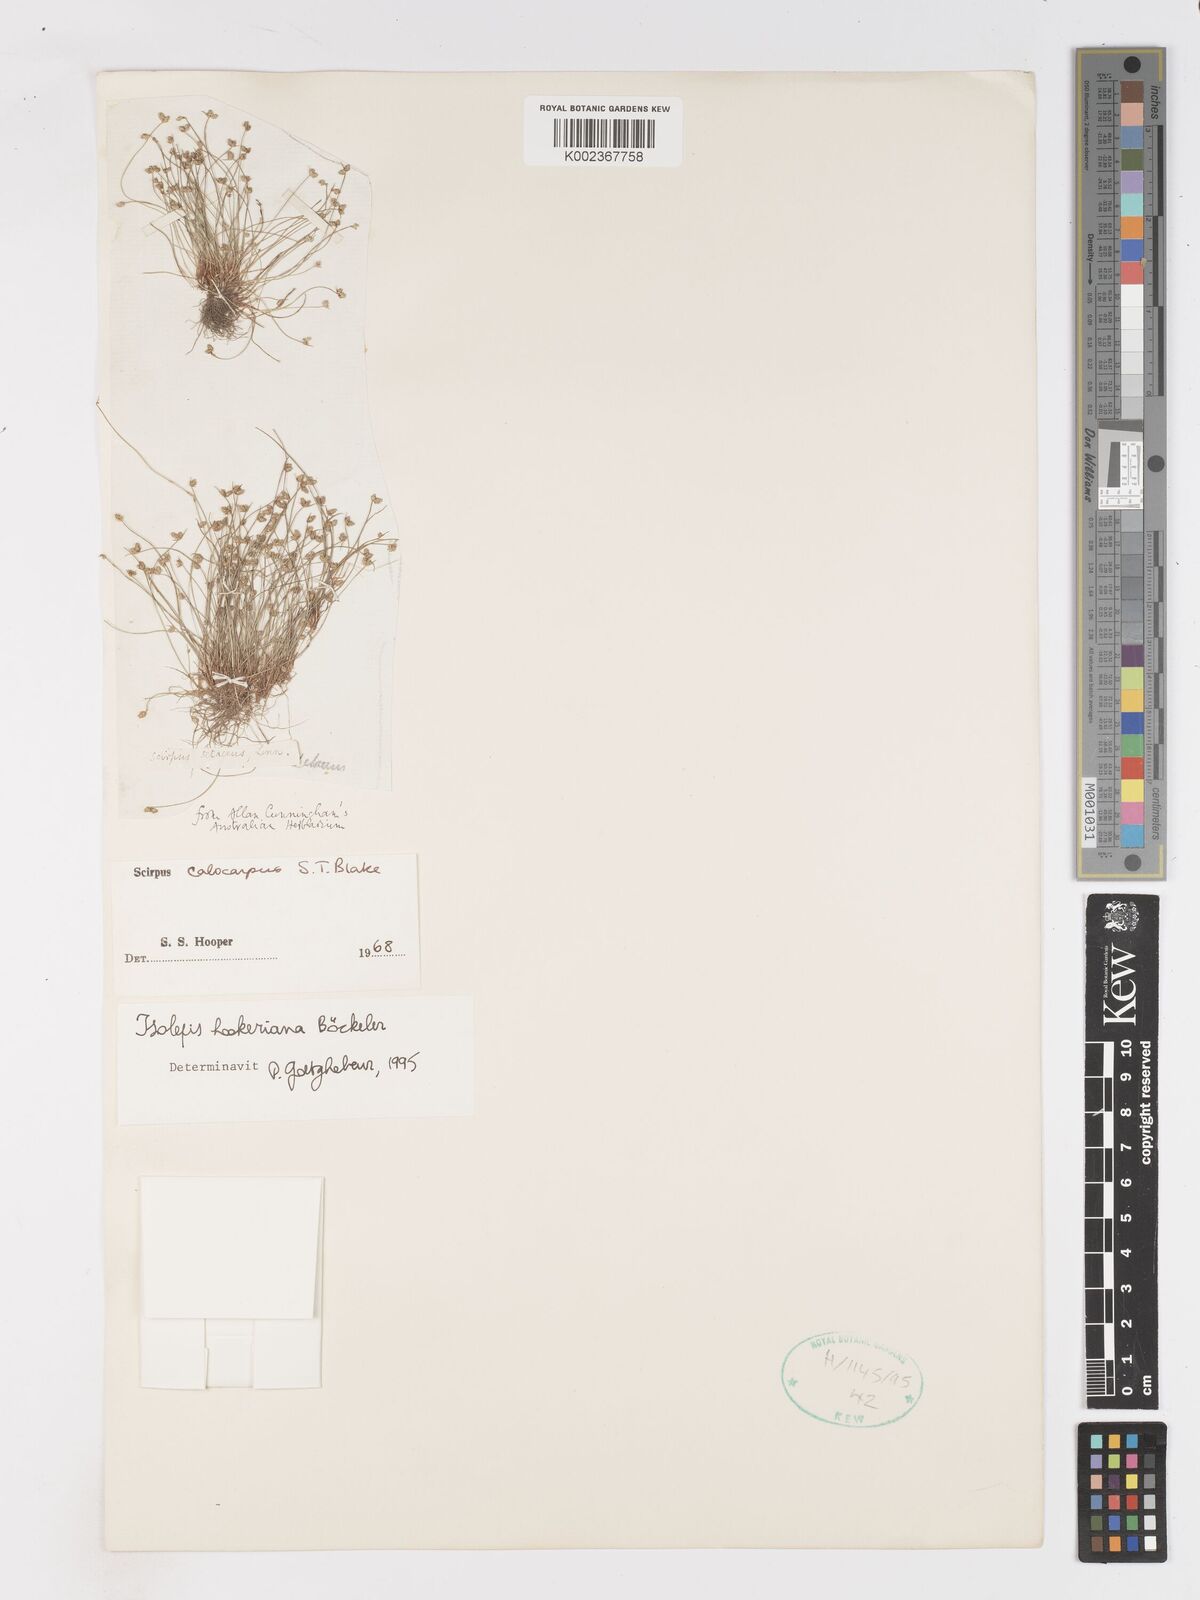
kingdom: Plantae
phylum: Tracheophyta
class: Liliopsida
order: Poales
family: Cyperaceae
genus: Isolepis
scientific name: Isolepis multicaulis
